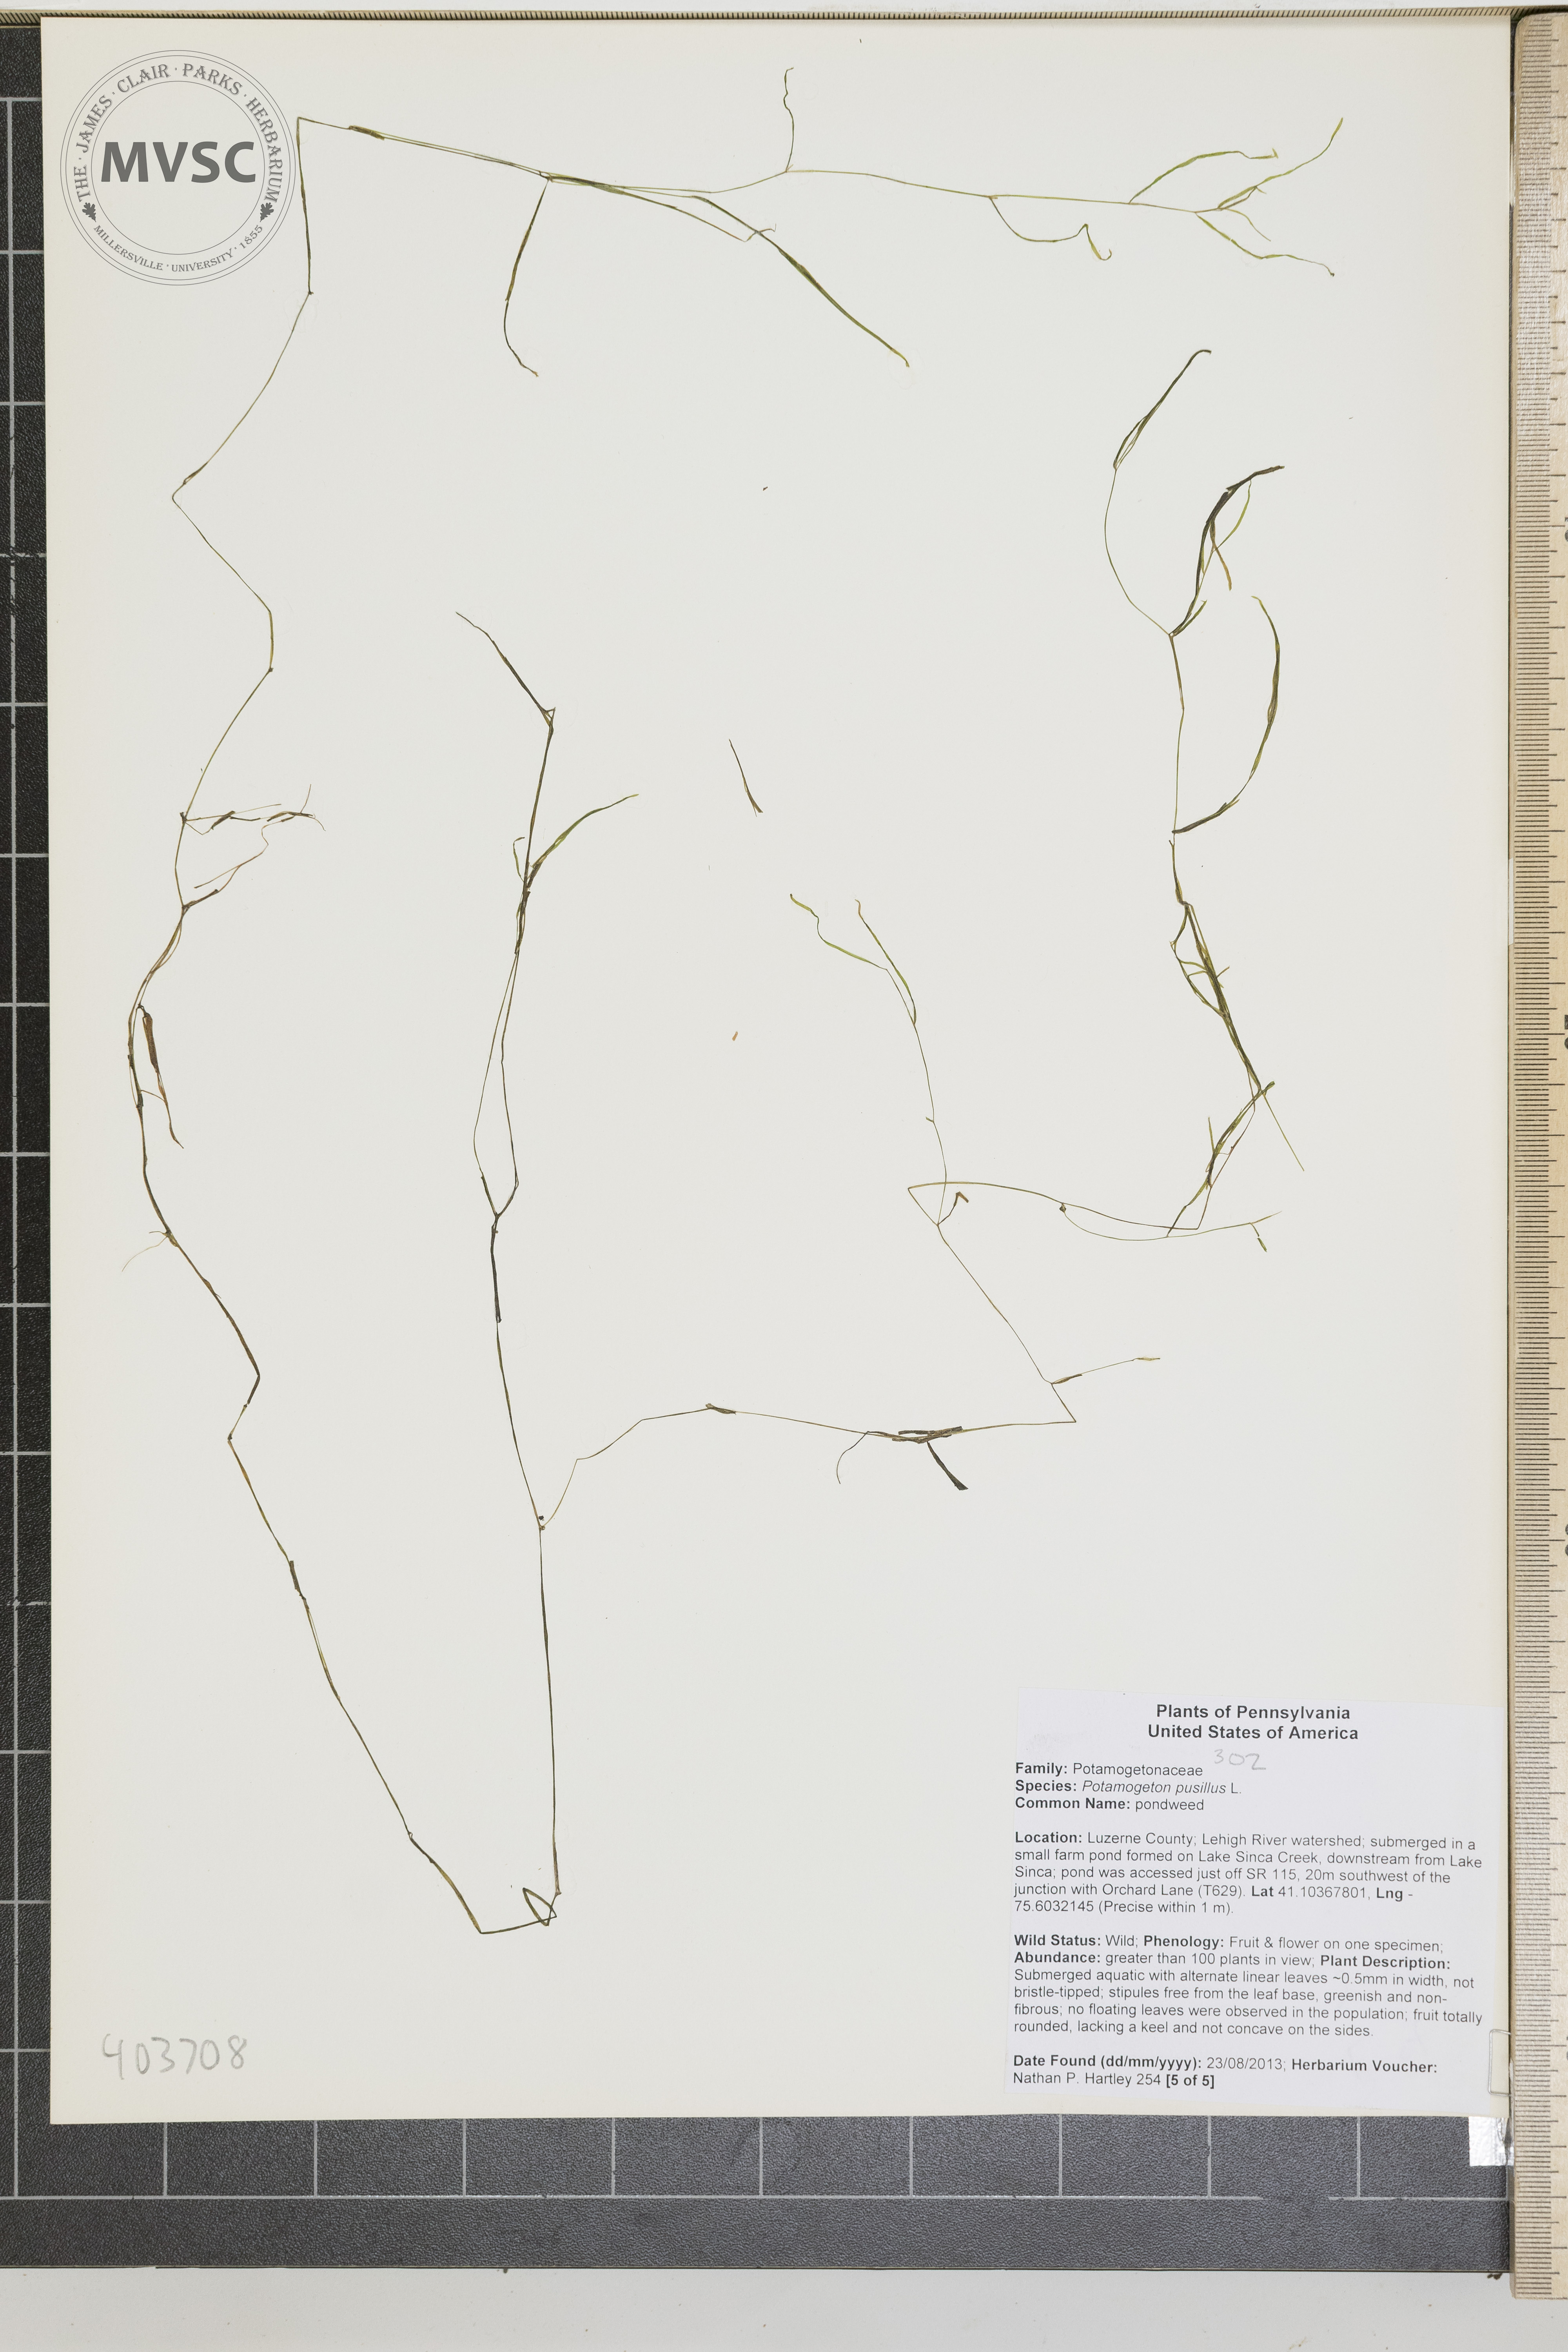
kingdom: Plantae
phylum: Tracheophyta
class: Liliopsida
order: Alismatales
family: Potamogetonaceae
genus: Potamogeton
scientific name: Potamogeton pusillus
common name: pondweed
